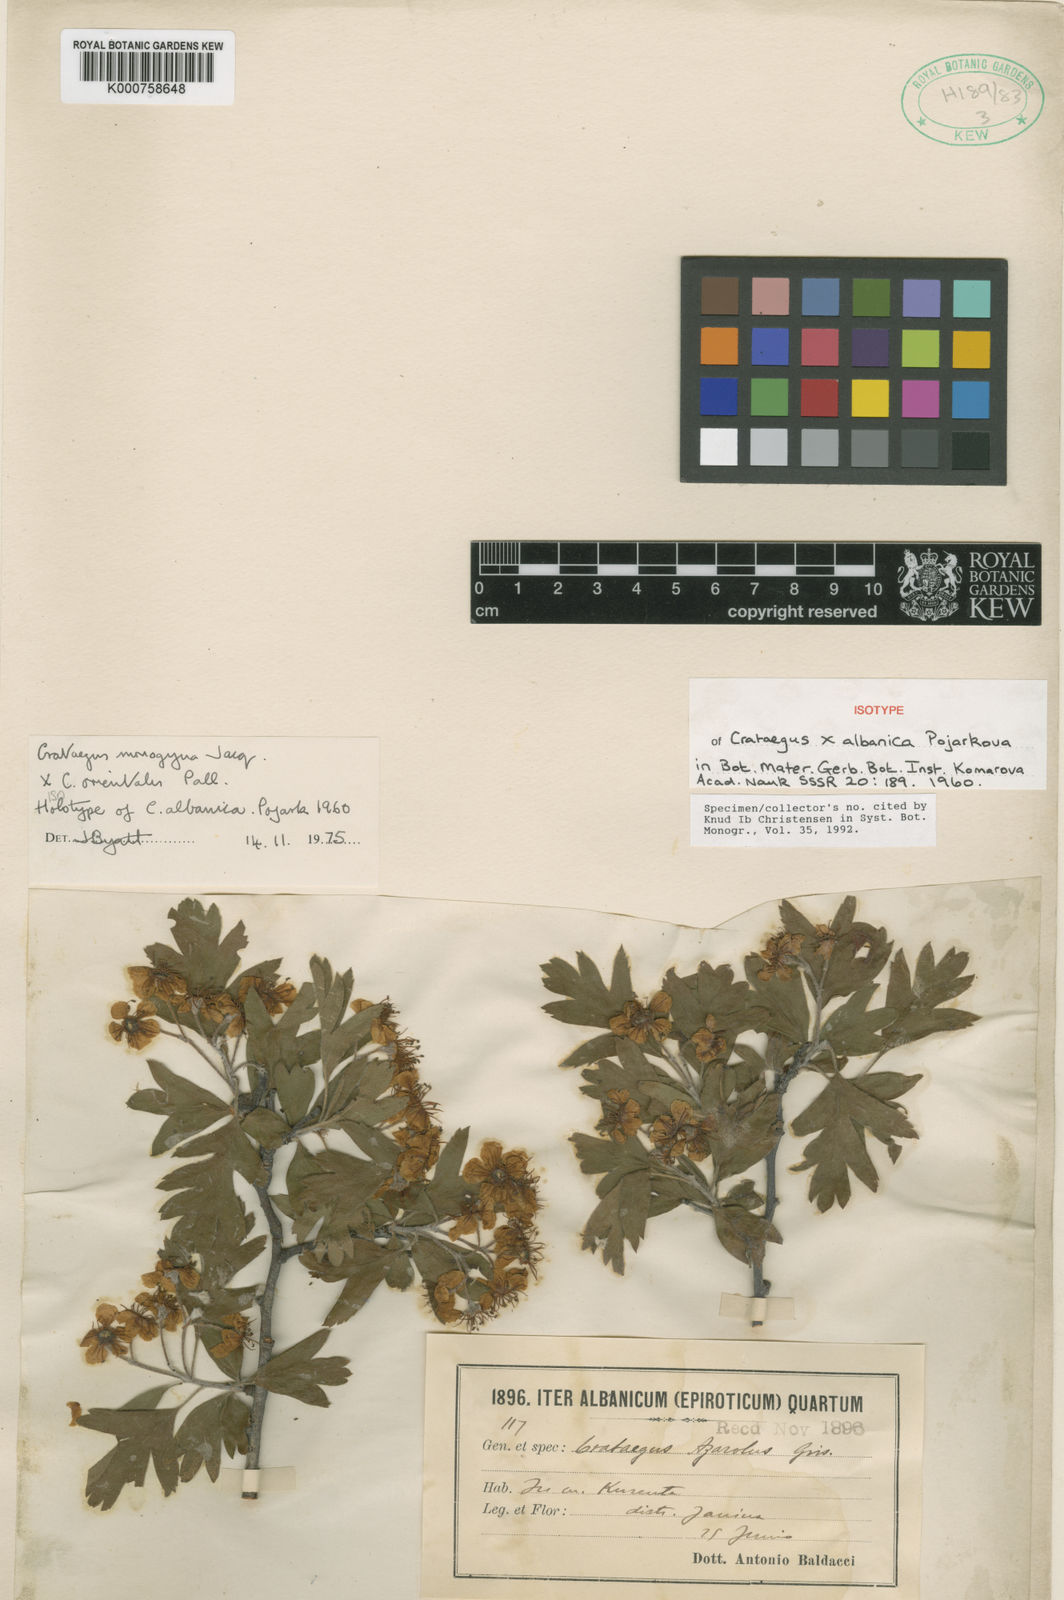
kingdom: Plantae
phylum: Tracheophyta
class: Magnoliopsida
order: Rosales
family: Rosaceae
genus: Crataegus
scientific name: Crataegus albanica
